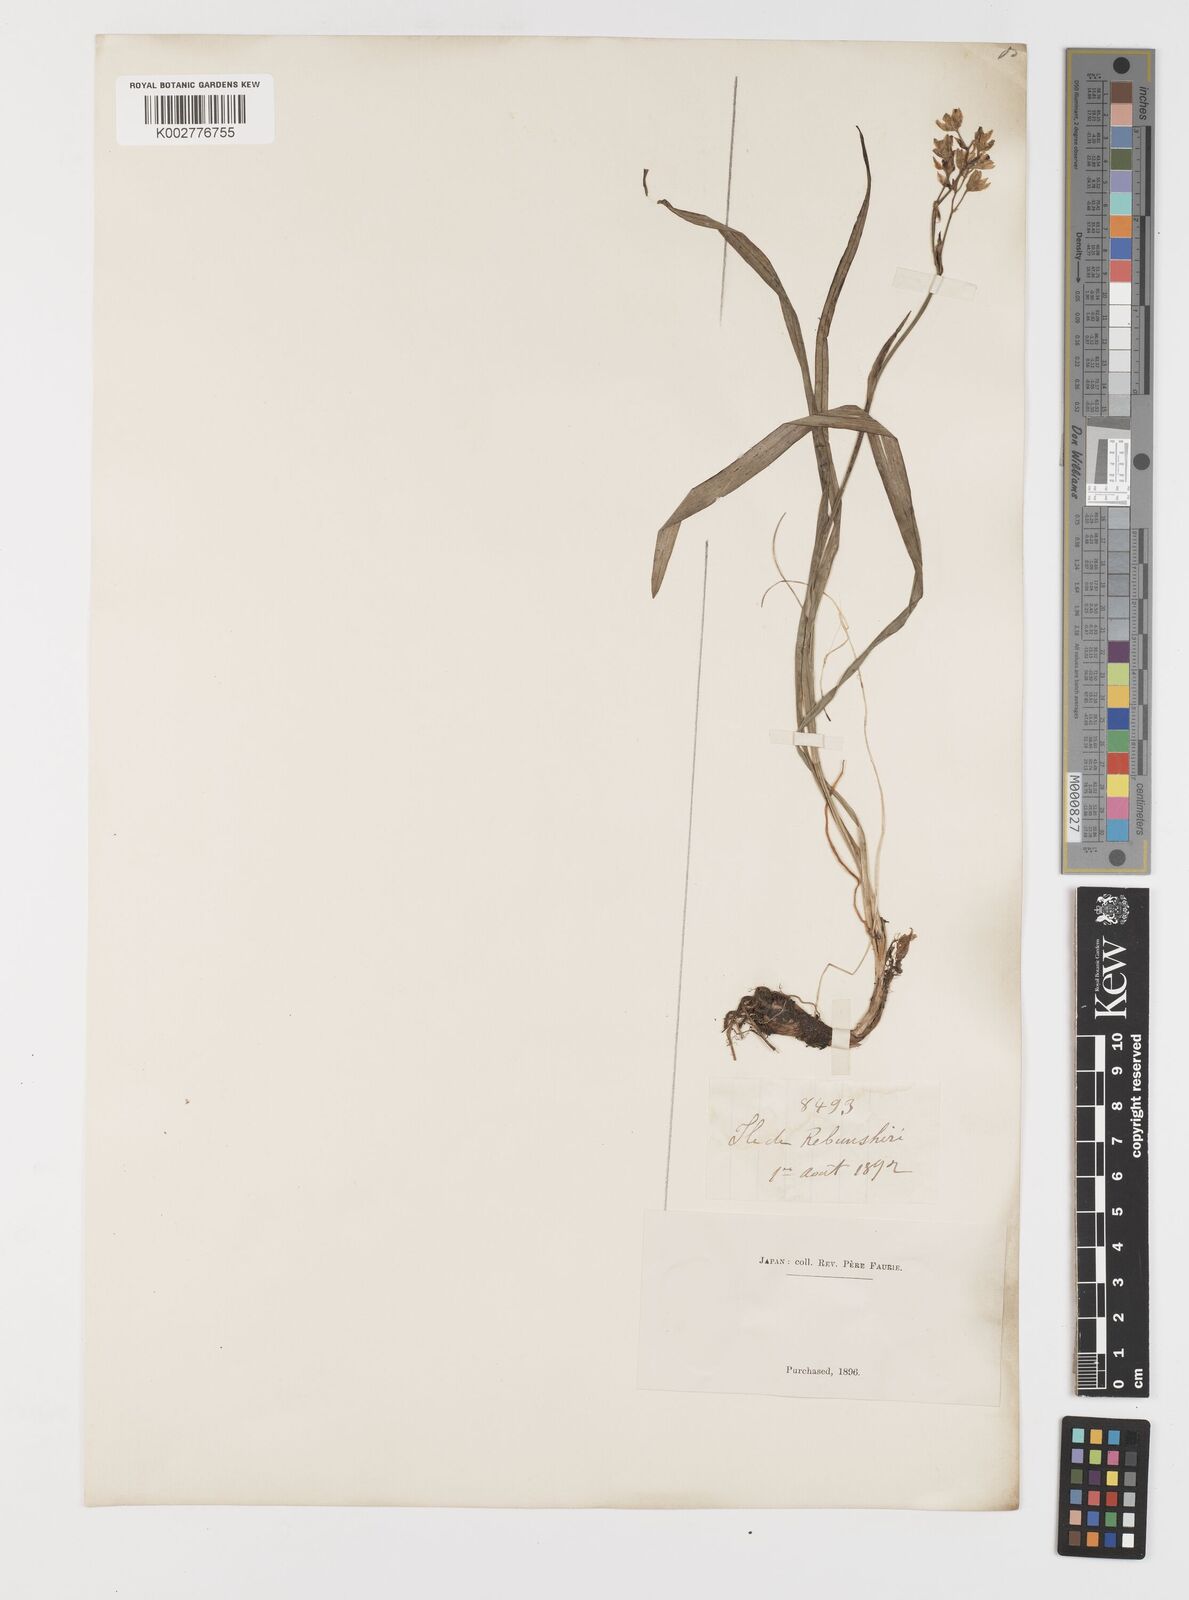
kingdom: Plantae
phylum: Tracheophyta
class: Liliopsida
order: Liliales
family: Melanthiaceae
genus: Anticlea
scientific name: Anticlea
